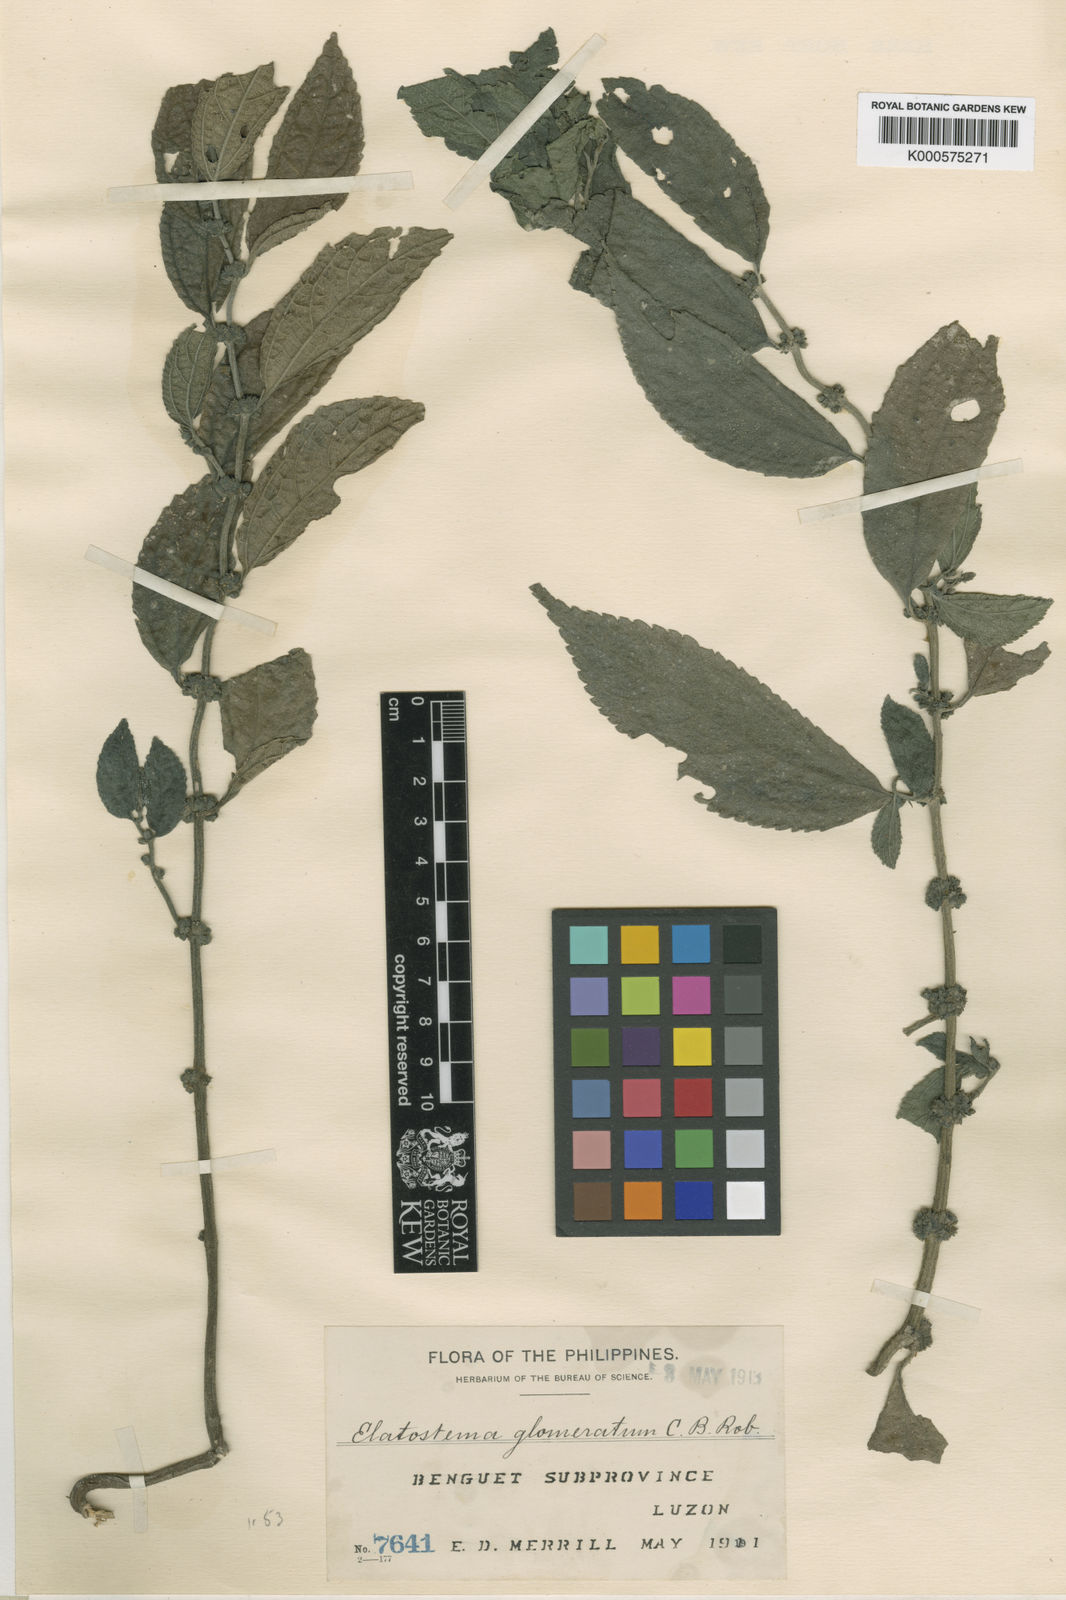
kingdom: Plantae
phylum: Tracheophyta
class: Magnoliopsida
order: Rosales
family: Urticaceae
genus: Elatostema
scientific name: Elatostema glomeratum
